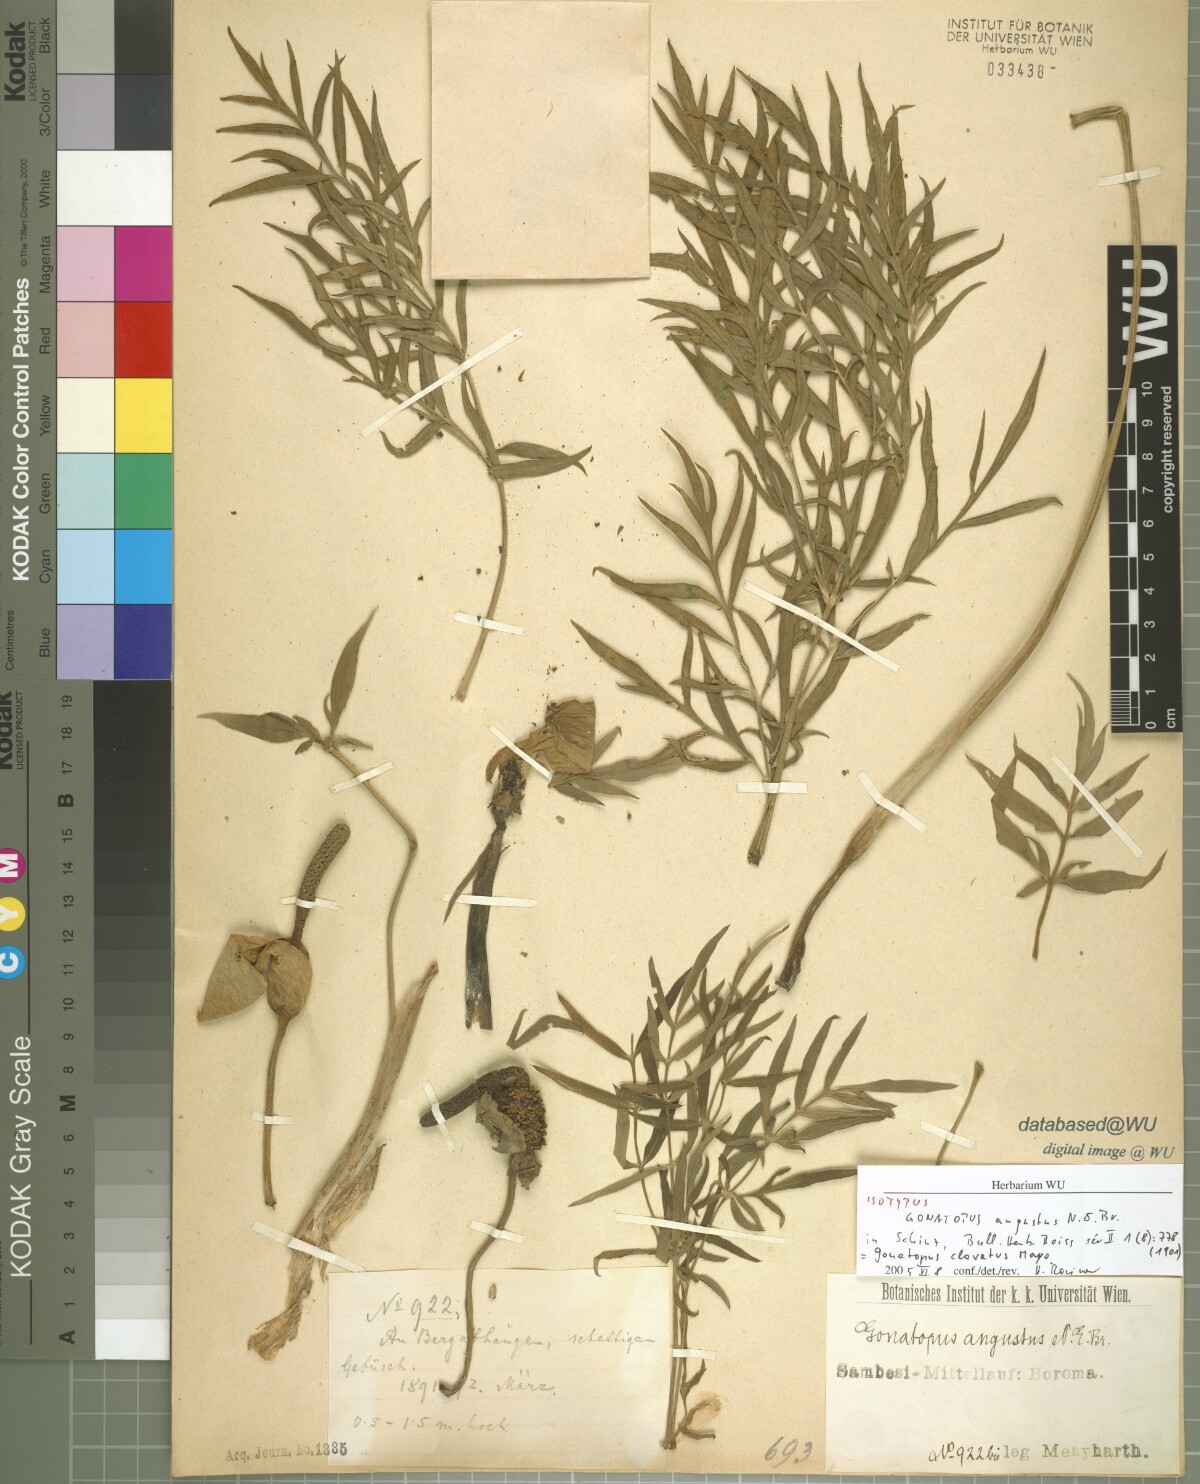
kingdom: Plantae
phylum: Tracheophyta
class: Liliopsida
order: Alismatales
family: Araceae
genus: Gonatopus
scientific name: Gonatopus angustus
